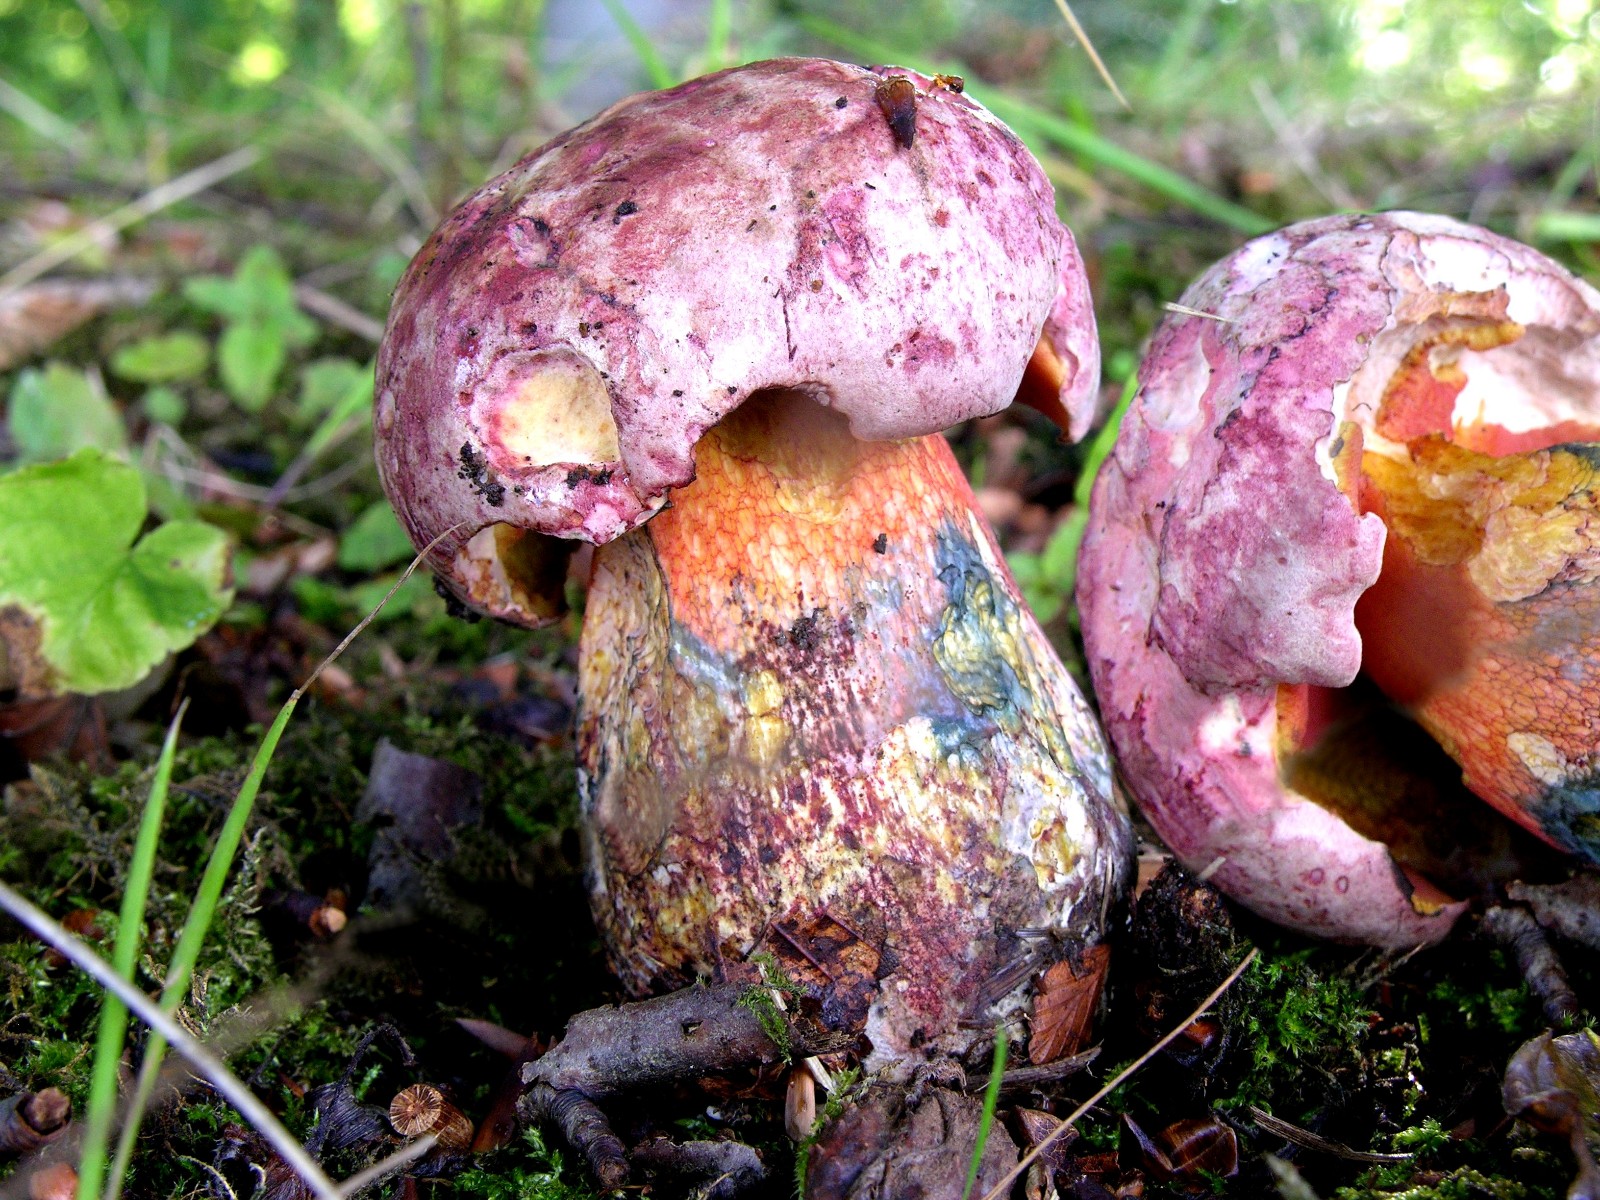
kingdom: Fungi
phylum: Basidiomycota
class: Agaricomycetes
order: Boletales
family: Boletaceae
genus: Rubroboletus
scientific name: Rubroboletus legaliae
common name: djævle-rørhat
